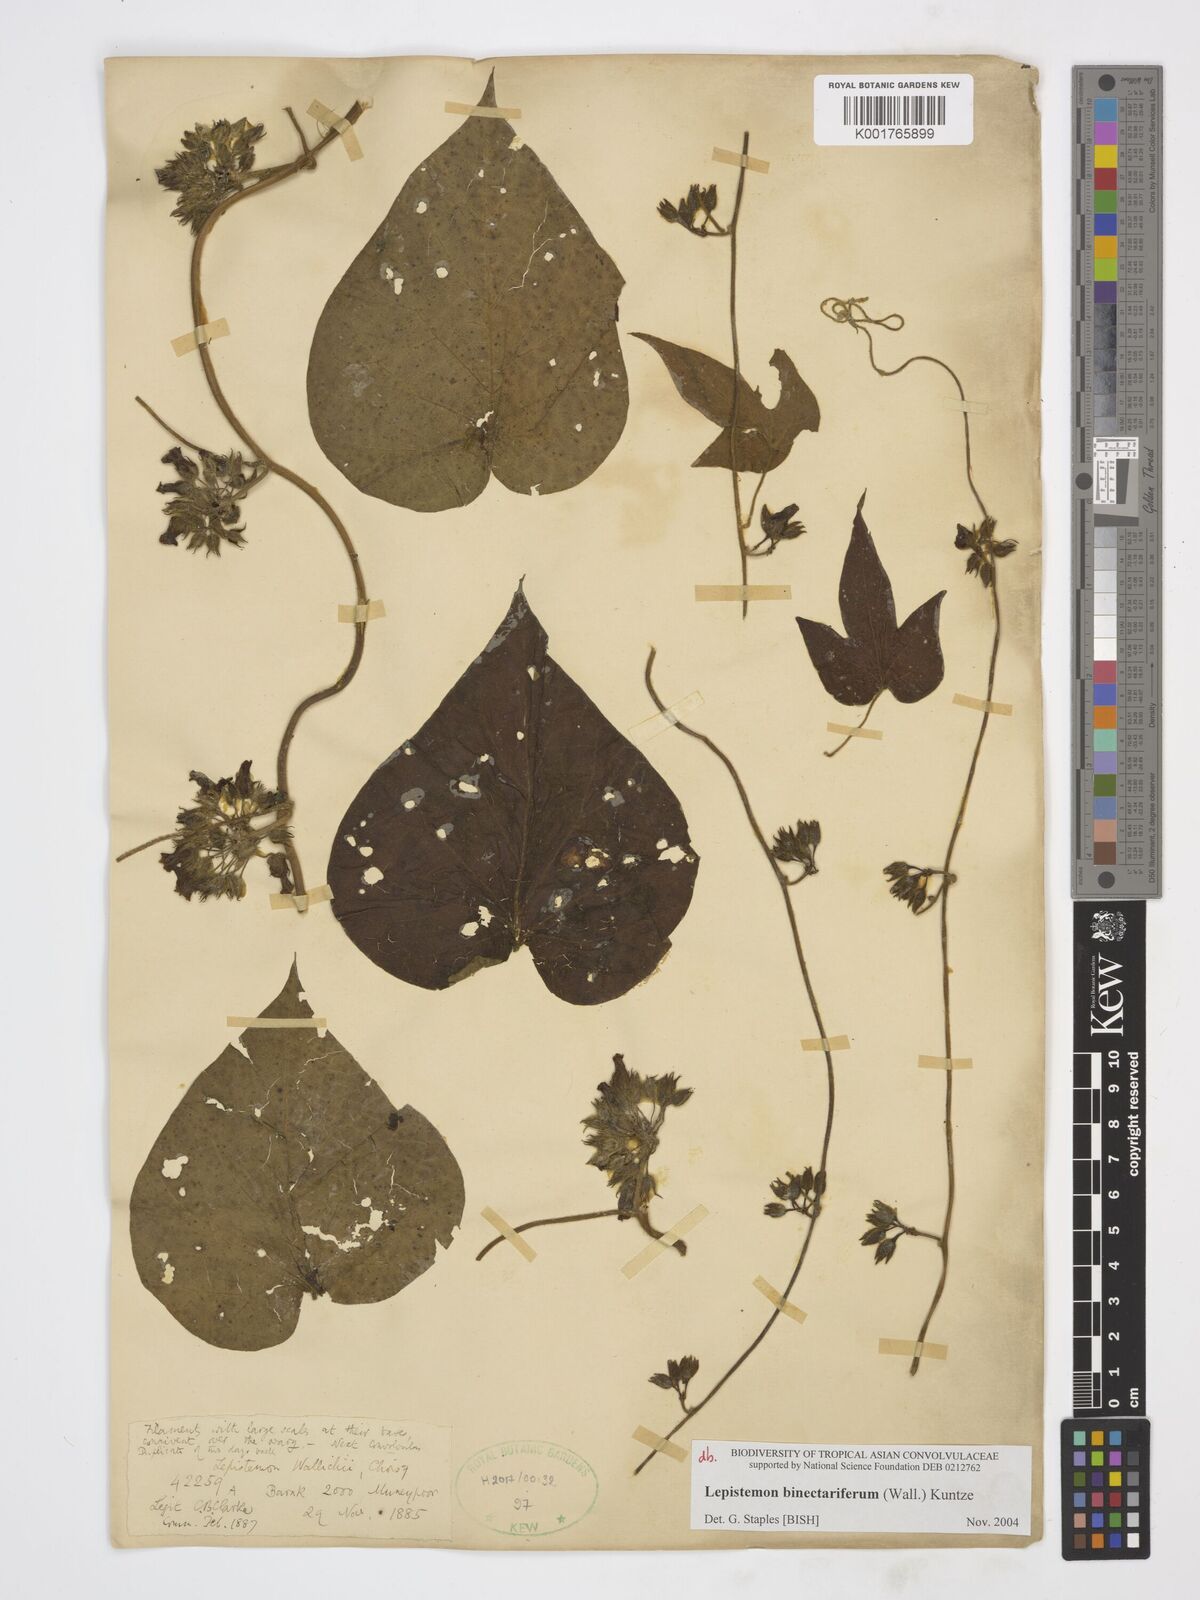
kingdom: Plantae
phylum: Tracheophyta
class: Magnoliopsida
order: Solanales
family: Convolvulaceae
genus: Lepistemon
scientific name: Lepistemon
